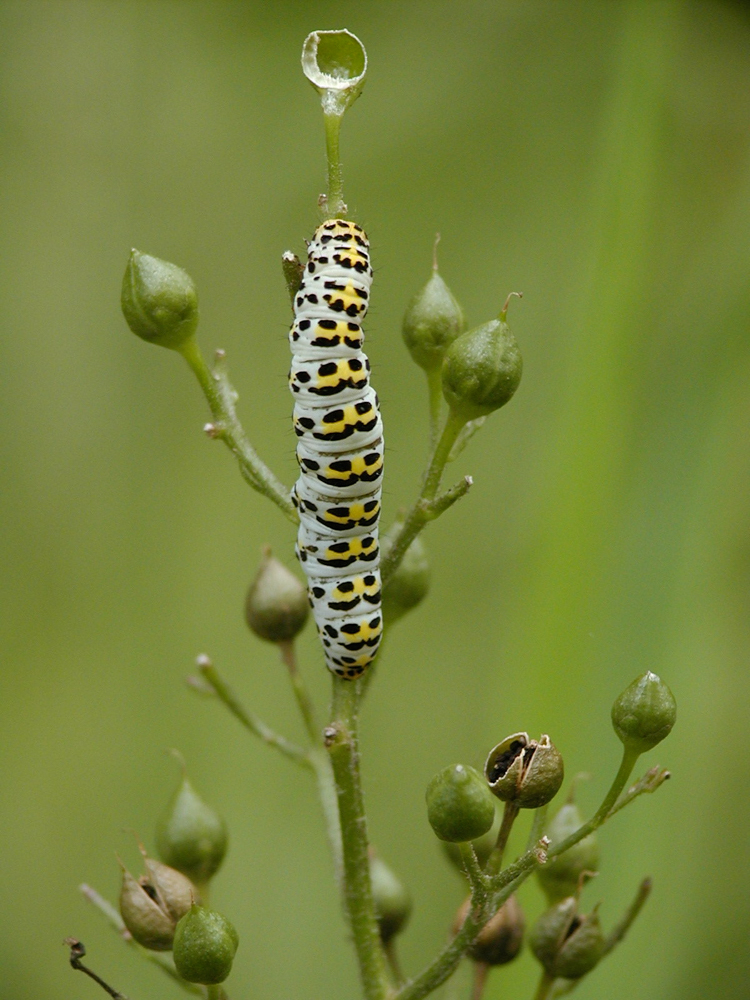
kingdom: Animalia
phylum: Arthropoda
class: Insecta
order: Lepidoptera
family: Noctuidae
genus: Cucullia
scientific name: Cucullia verbasci
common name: Mullein
